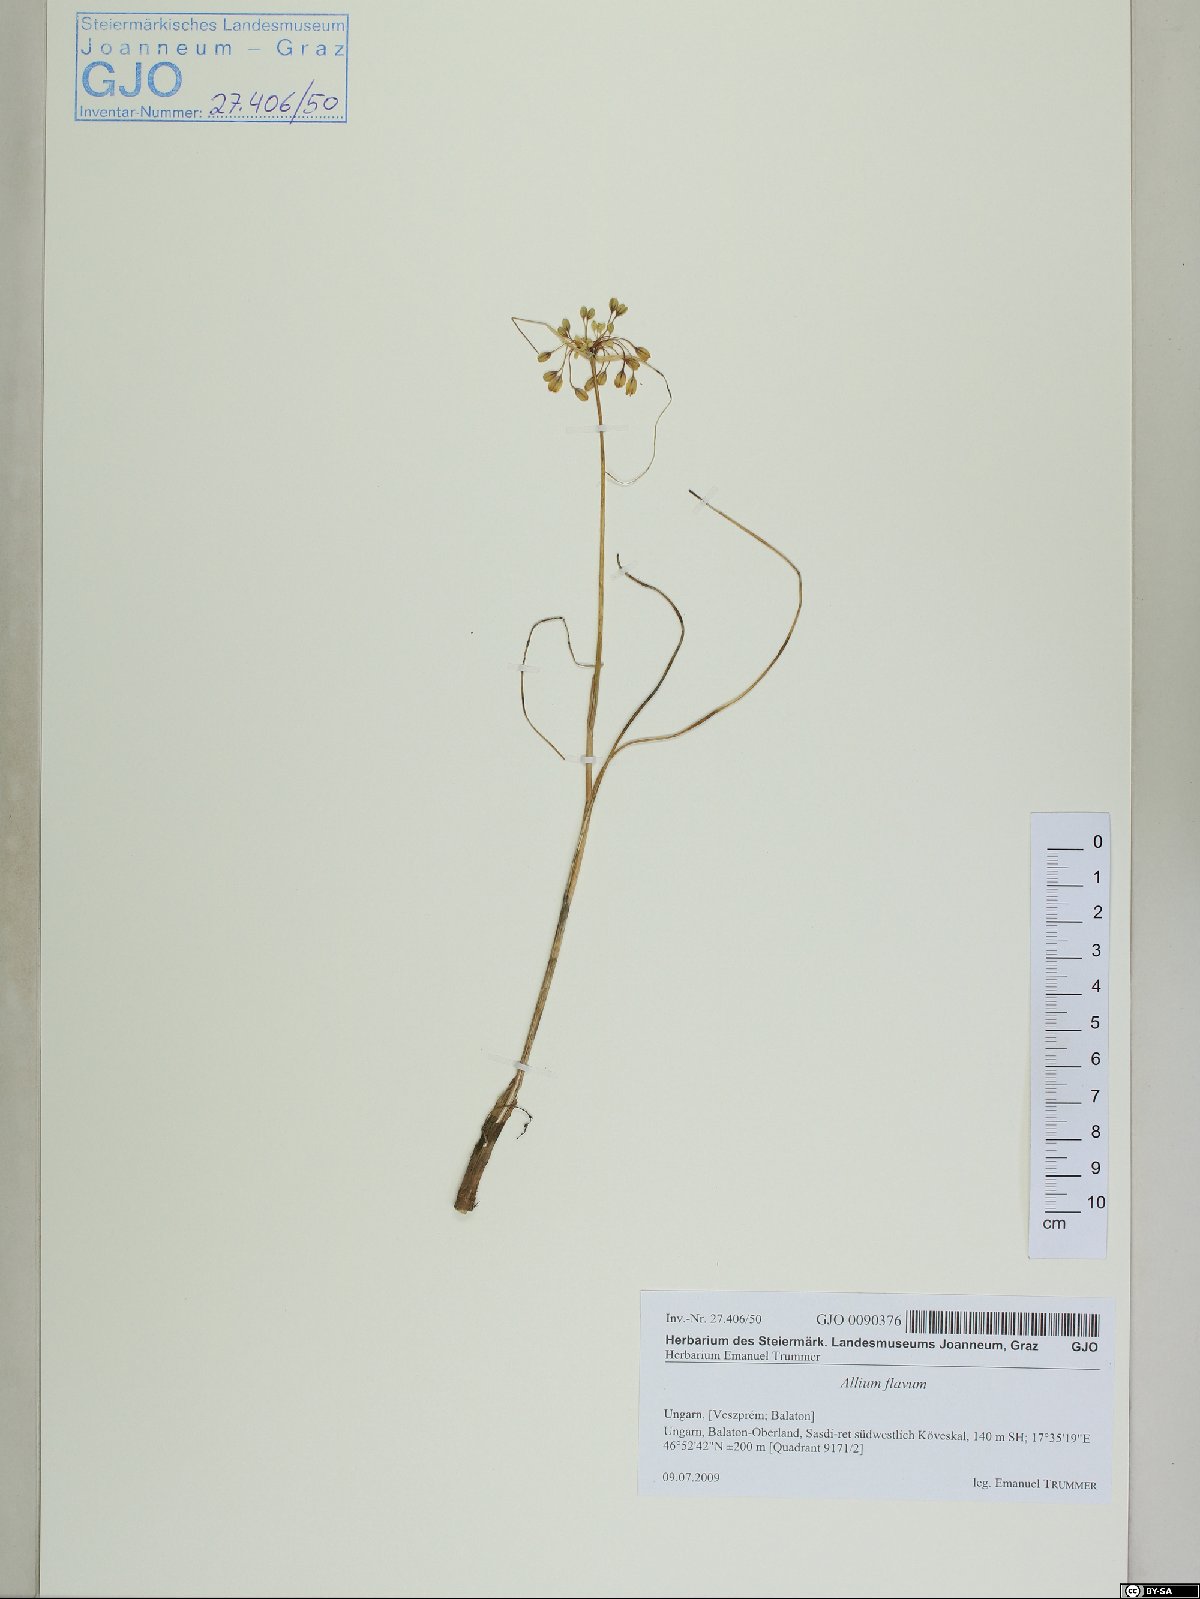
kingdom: Plantae
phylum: Tracheophyta
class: Liliopsida
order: Asparagales
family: Amaryllidaceae
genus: Allium
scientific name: Allium flavum
